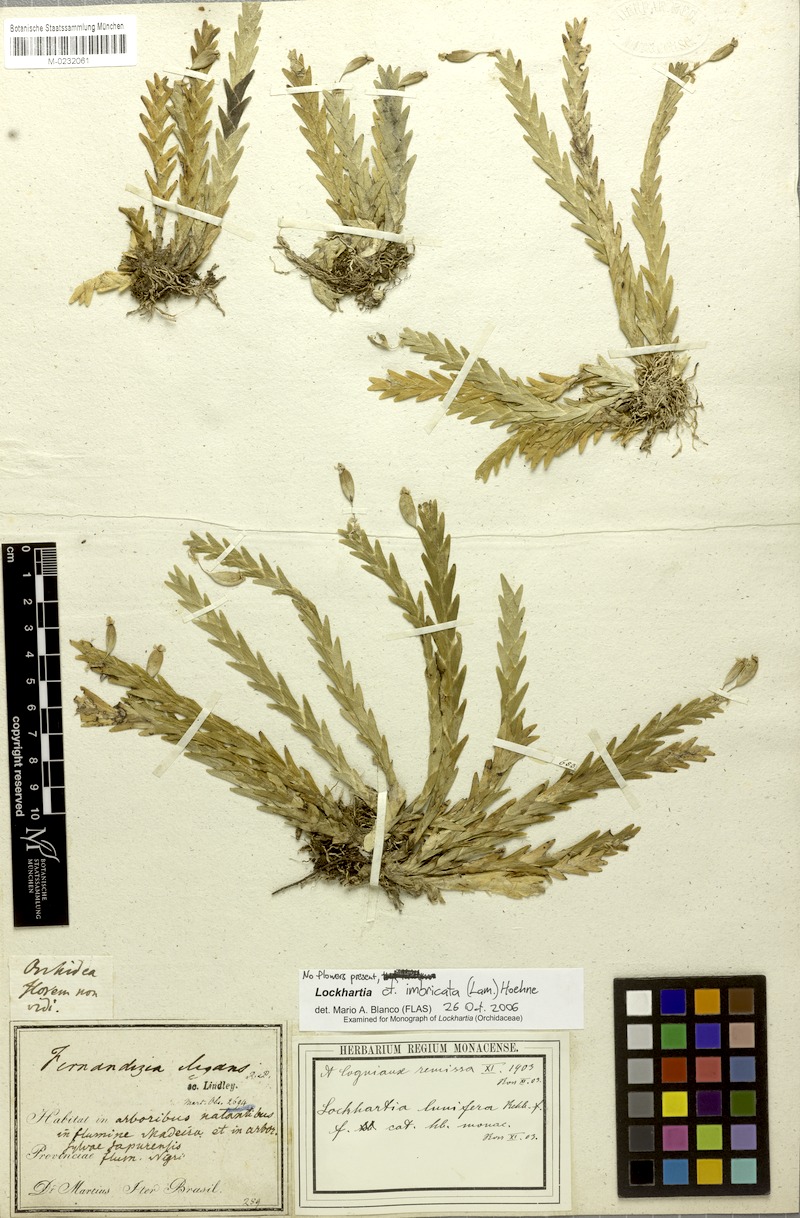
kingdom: Plantae
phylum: Tracheophyta
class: Liliopsida
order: Asparagales
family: Orchidaceae
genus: Lockhartia
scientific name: Lockhartia imbricata
